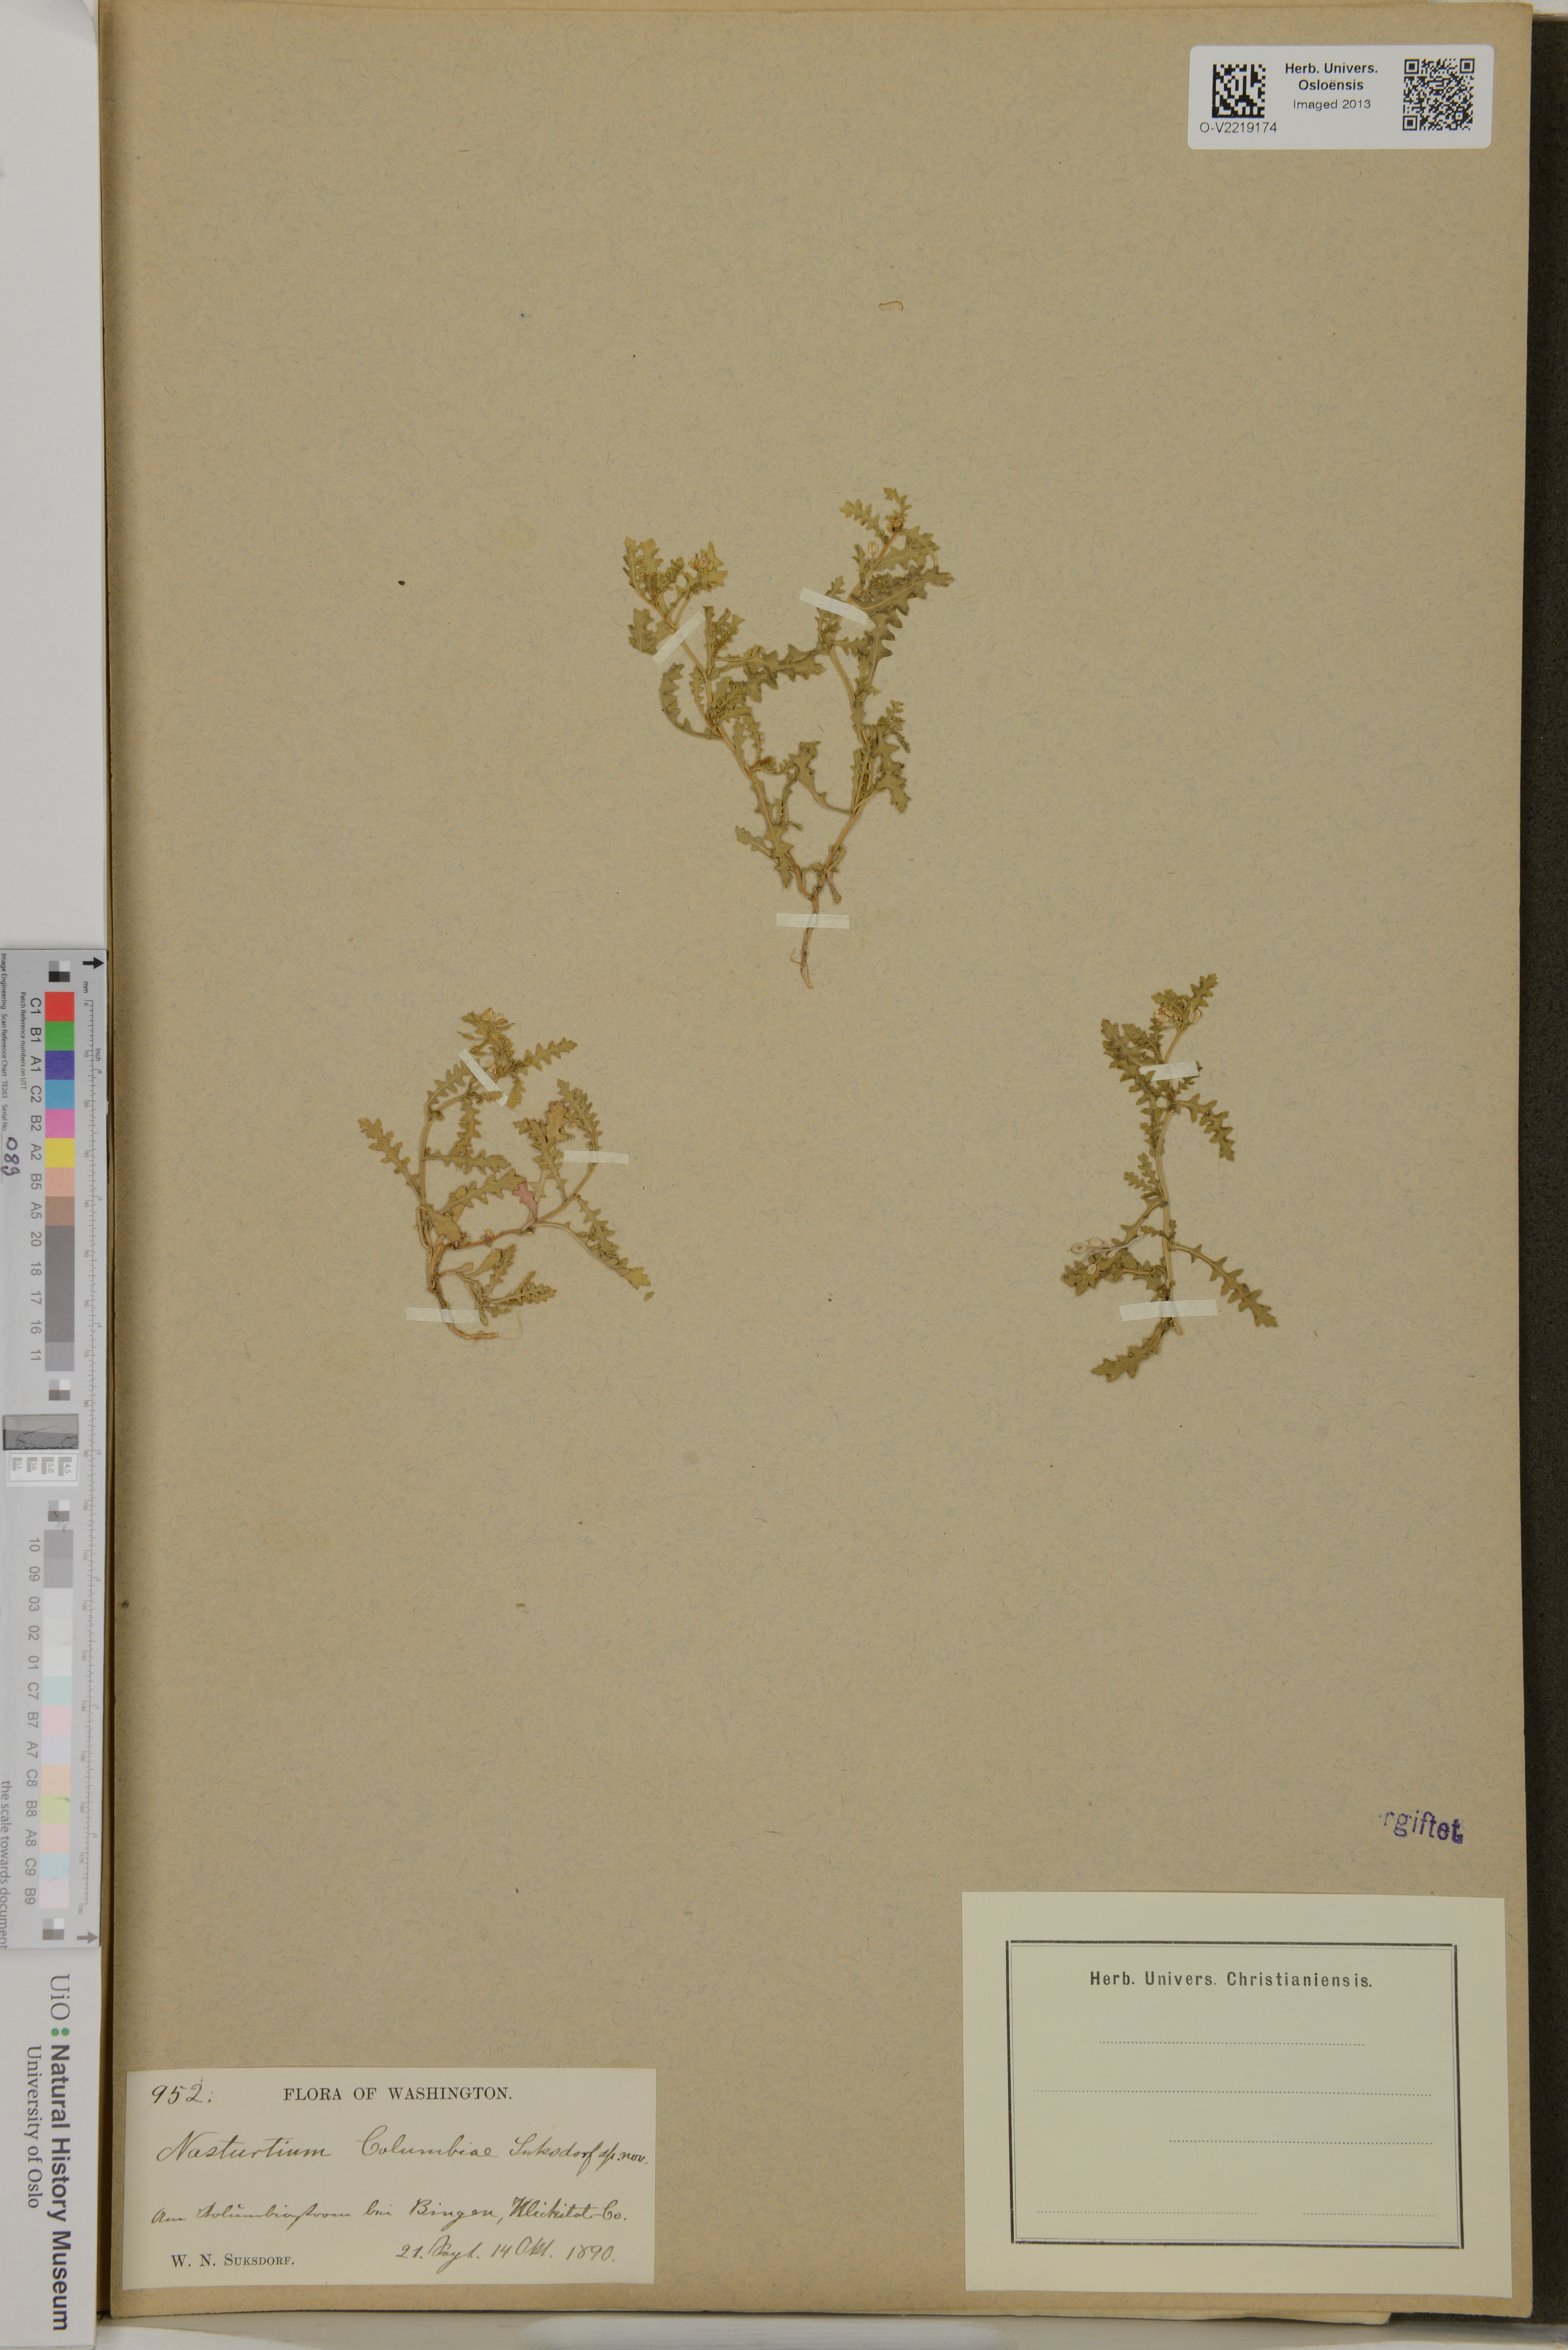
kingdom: Plantae
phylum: Tracheophyta
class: Magnoliopsida
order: Brassicales
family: Brassicaceae
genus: Rorippa
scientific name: Rorippa columbiae
